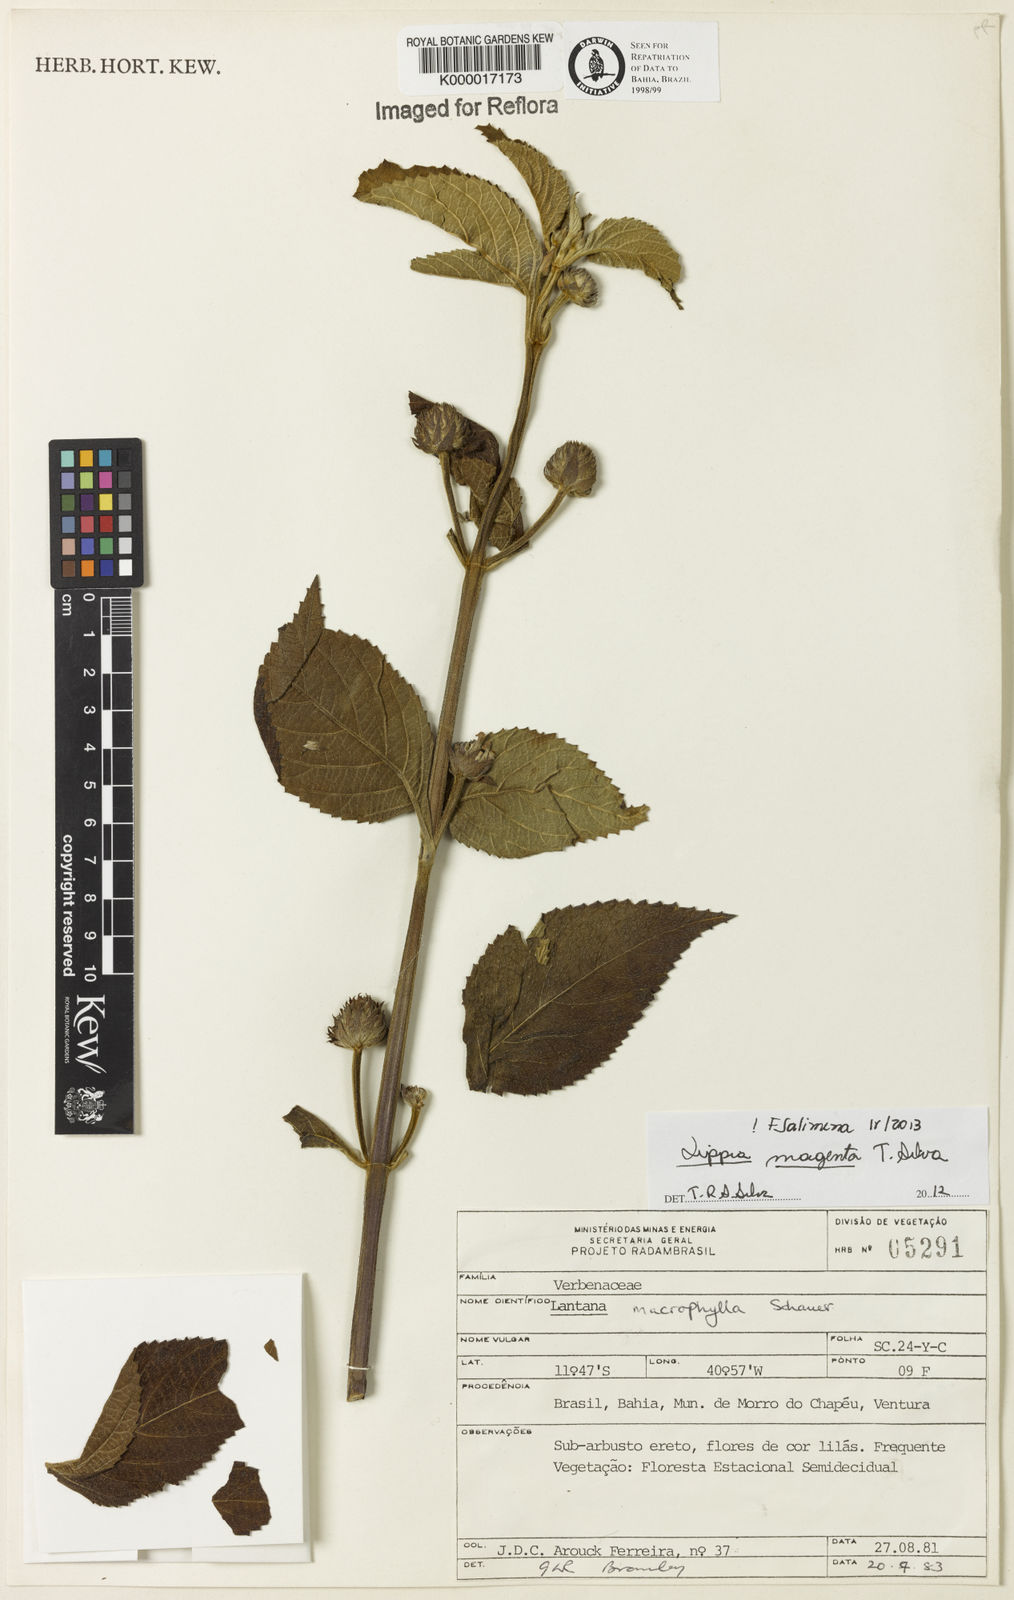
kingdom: Plantae
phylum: Tracheophyta
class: Magnoliopsida
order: Lamiales
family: Verbenaceae
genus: Lippia
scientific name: Lippia
